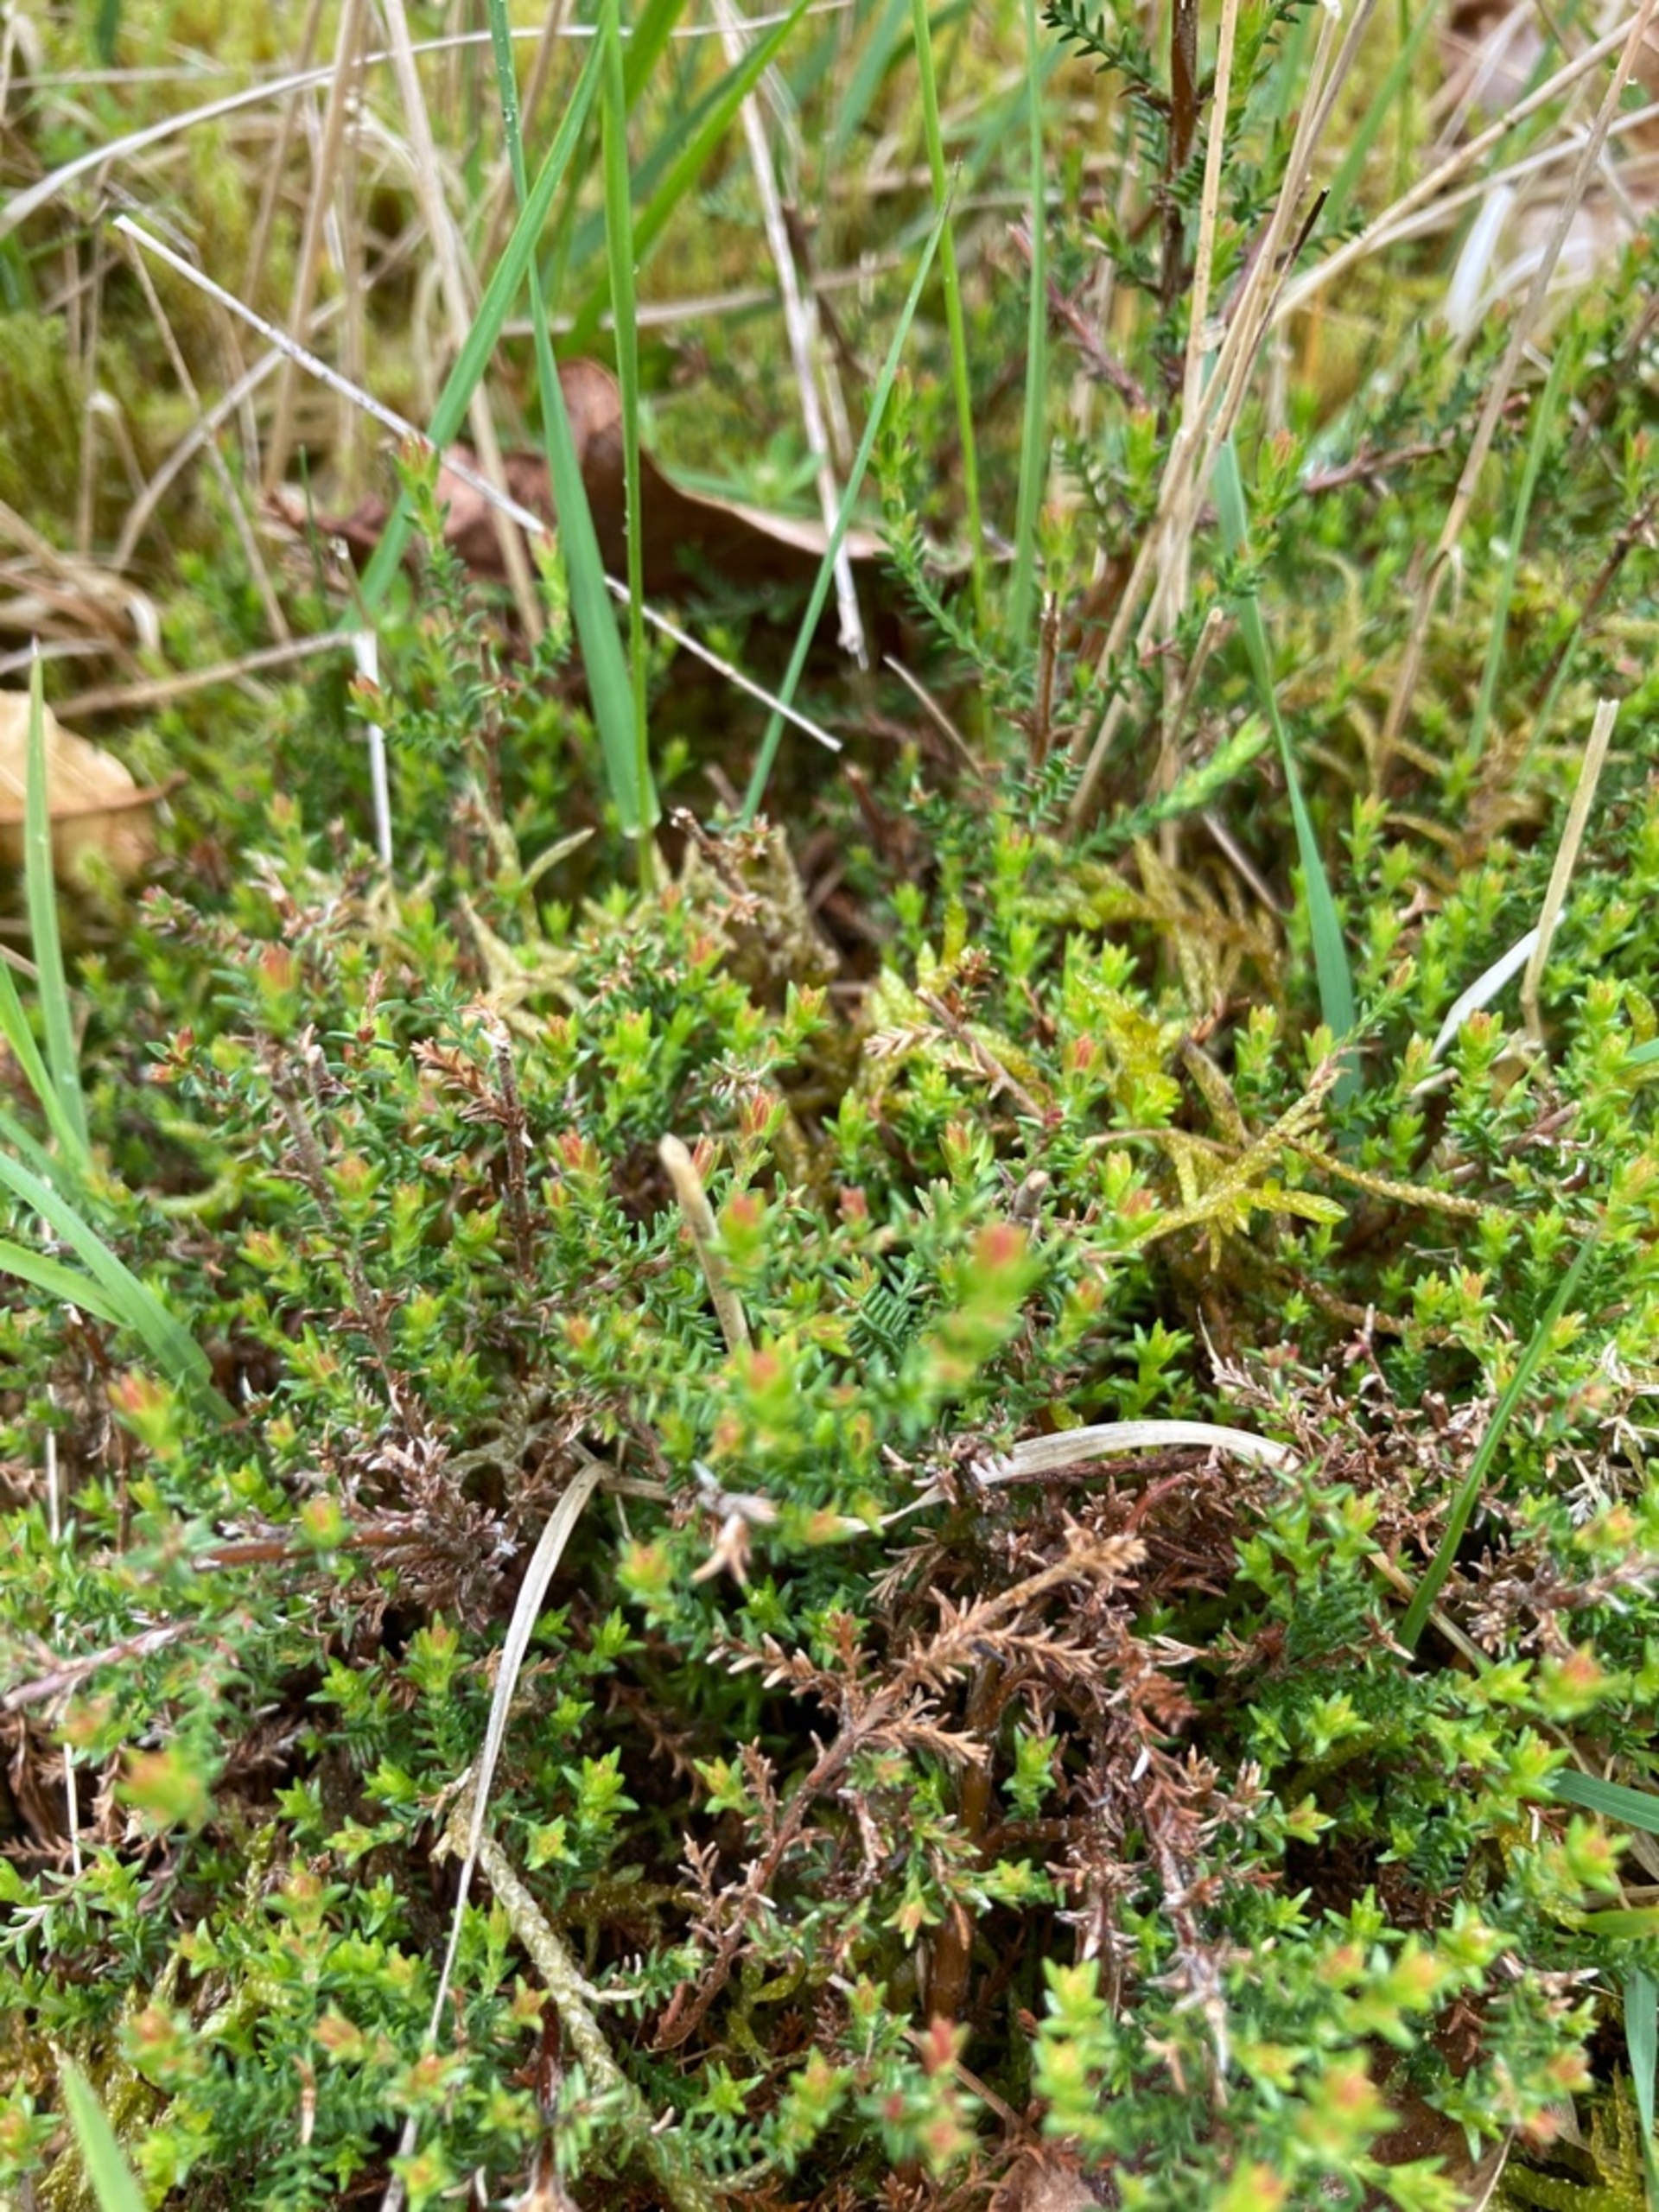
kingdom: Plantae
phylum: Tracheophyta
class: Magnoliopsida
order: Ericales
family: Ericaceae
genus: Calluna
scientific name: Calluna vulgaris
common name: Hedelyng
